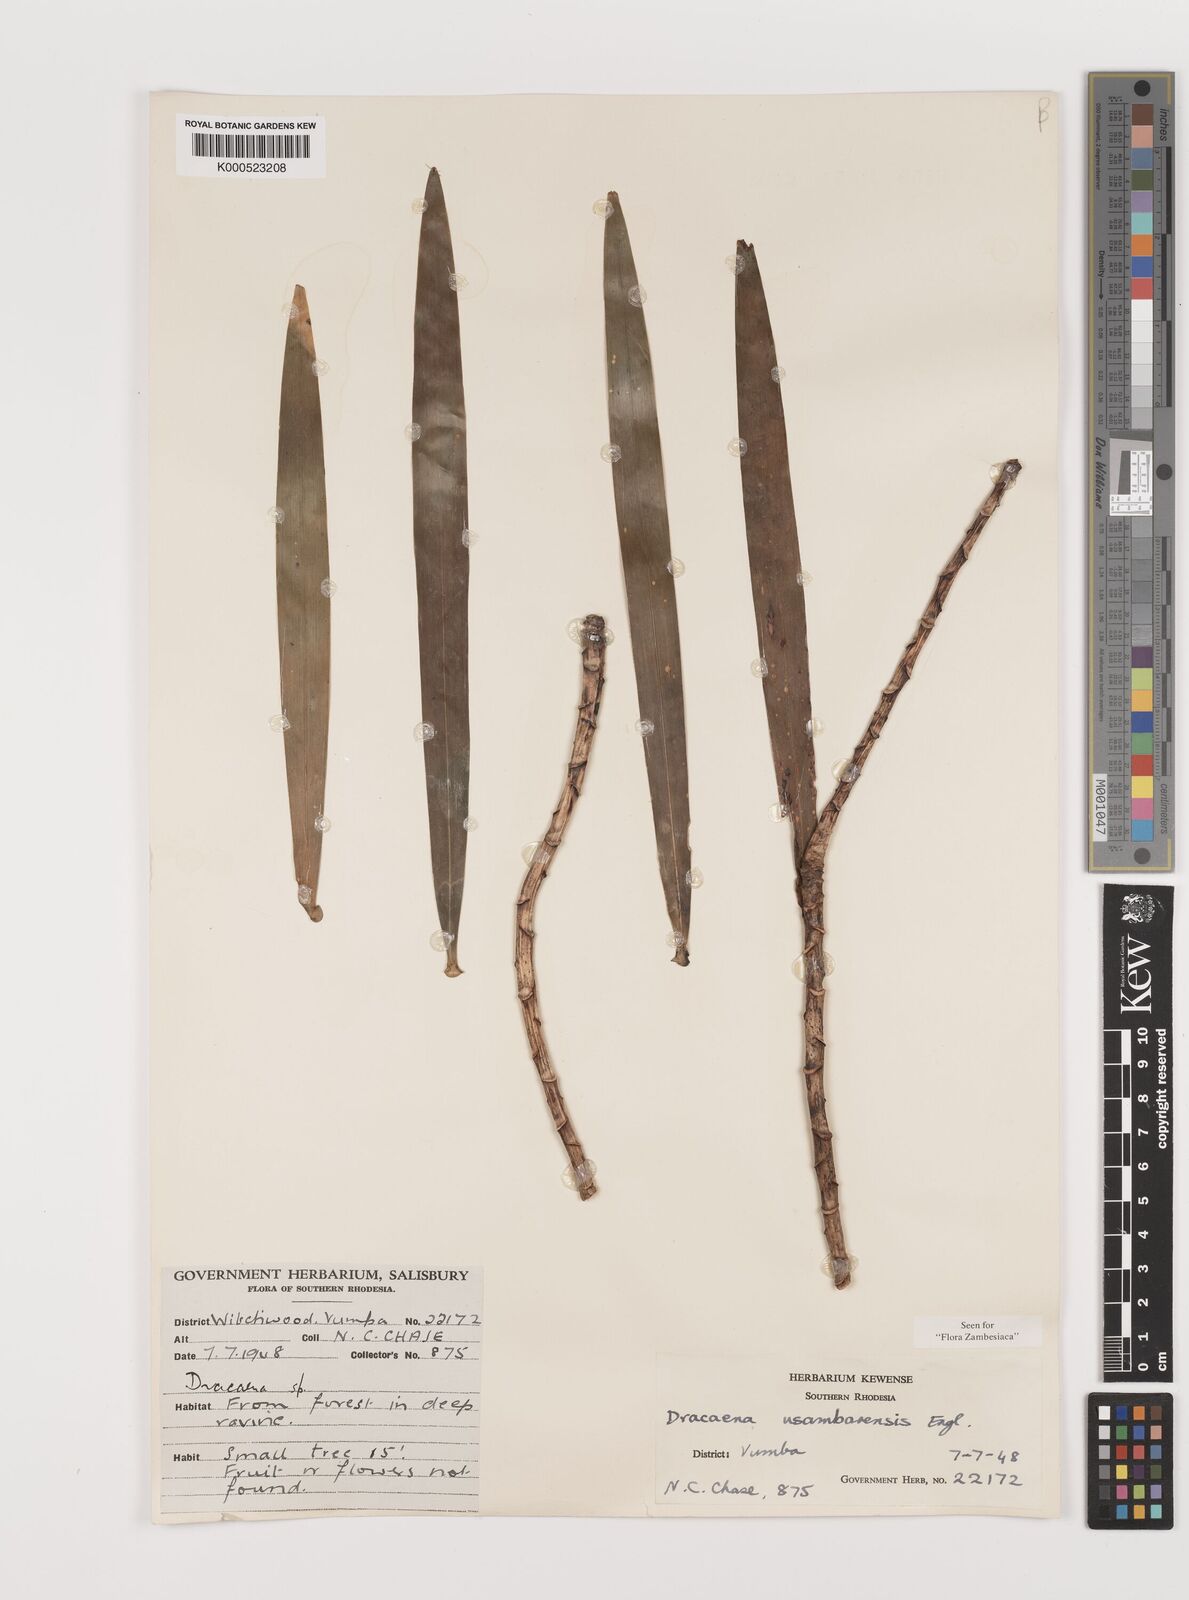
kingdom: Plantae
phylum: Tracheophyta
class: Liliopsida
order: Asparagales
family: Asparagaceae
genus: Dracaena
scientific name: Dracaena usambarensis
